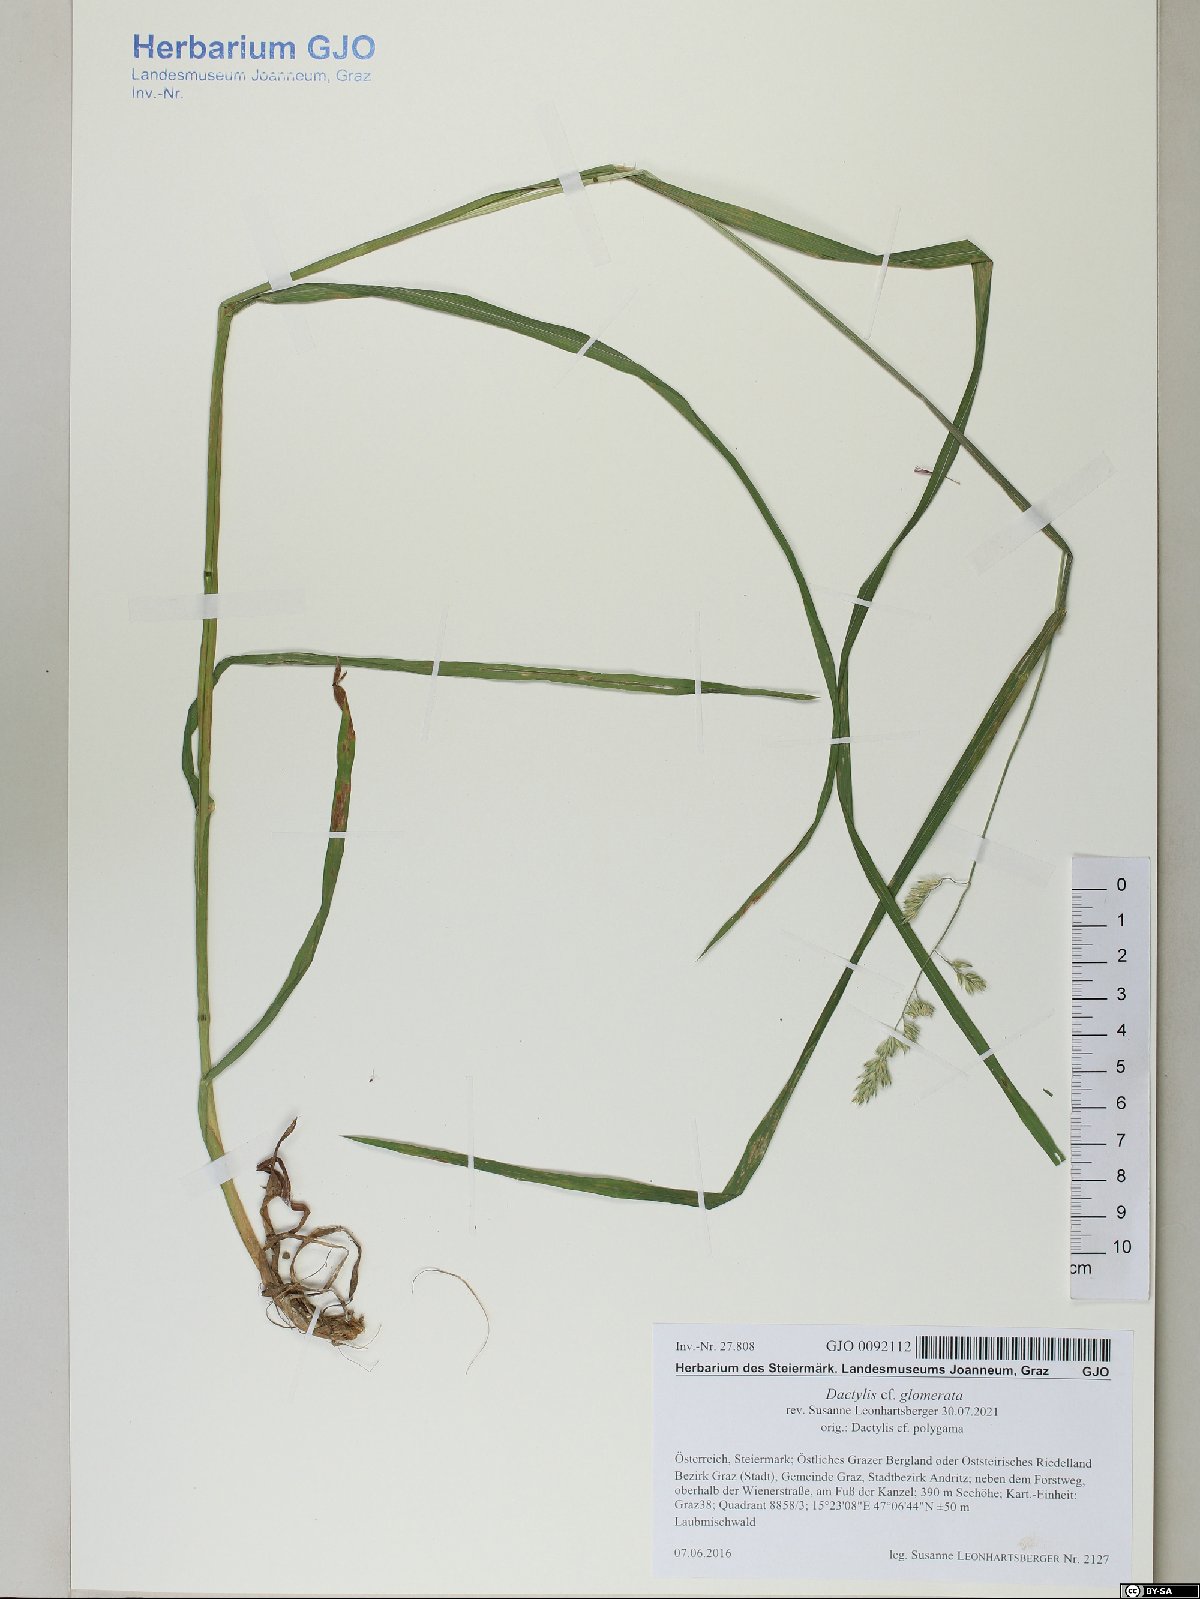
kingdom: Plantae
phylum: Tracheophyta
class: Liliopsida
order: Poales
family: Poaceae
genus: Dactylis
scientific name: Dactylis glomerata
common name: Orchardgrass
